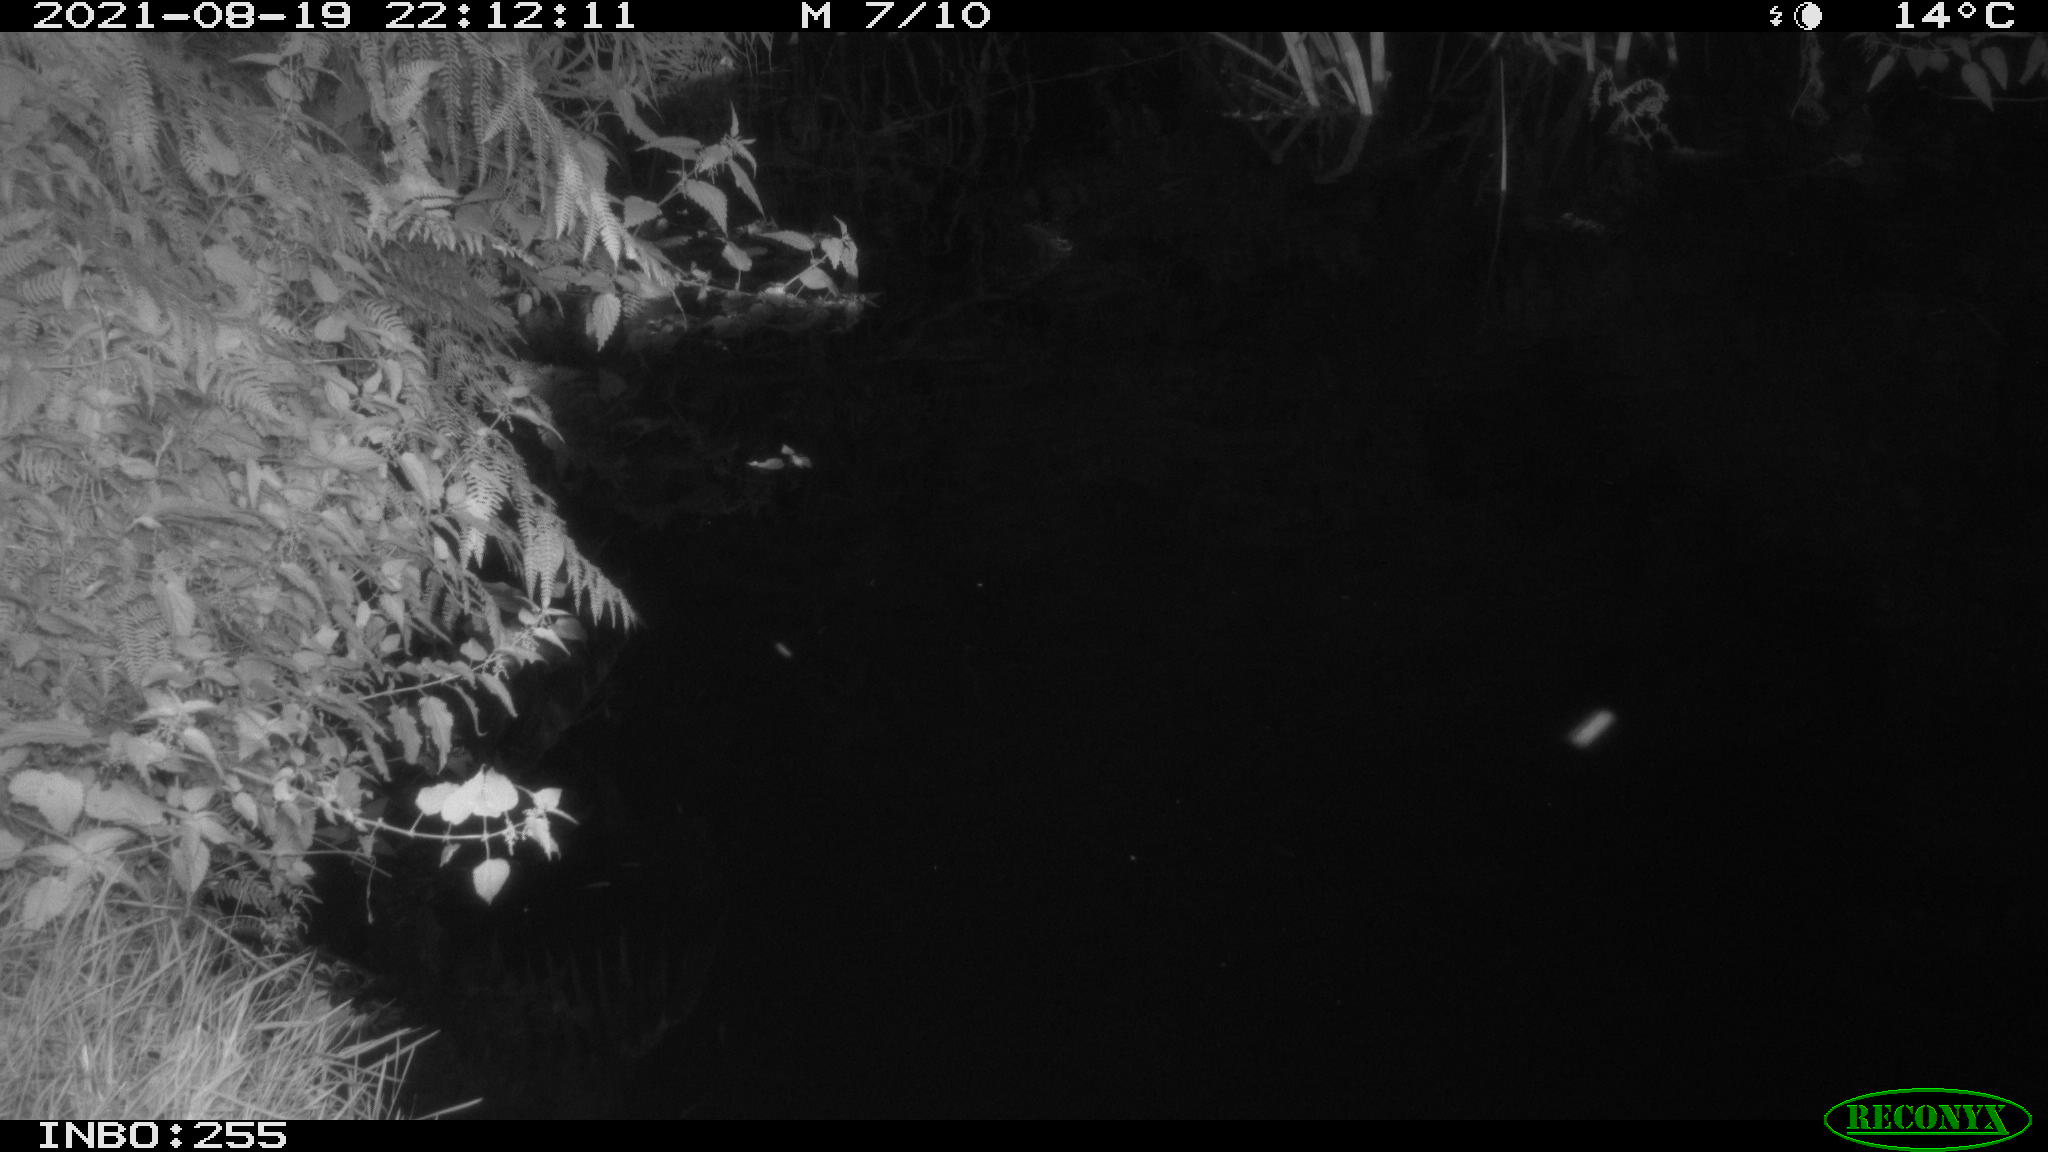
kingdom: Animalia
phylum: Chordata
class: Aves
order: Anseriformes
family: Anatidae
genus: Anas
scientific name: Anas platyrhynchos
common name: Mallard
